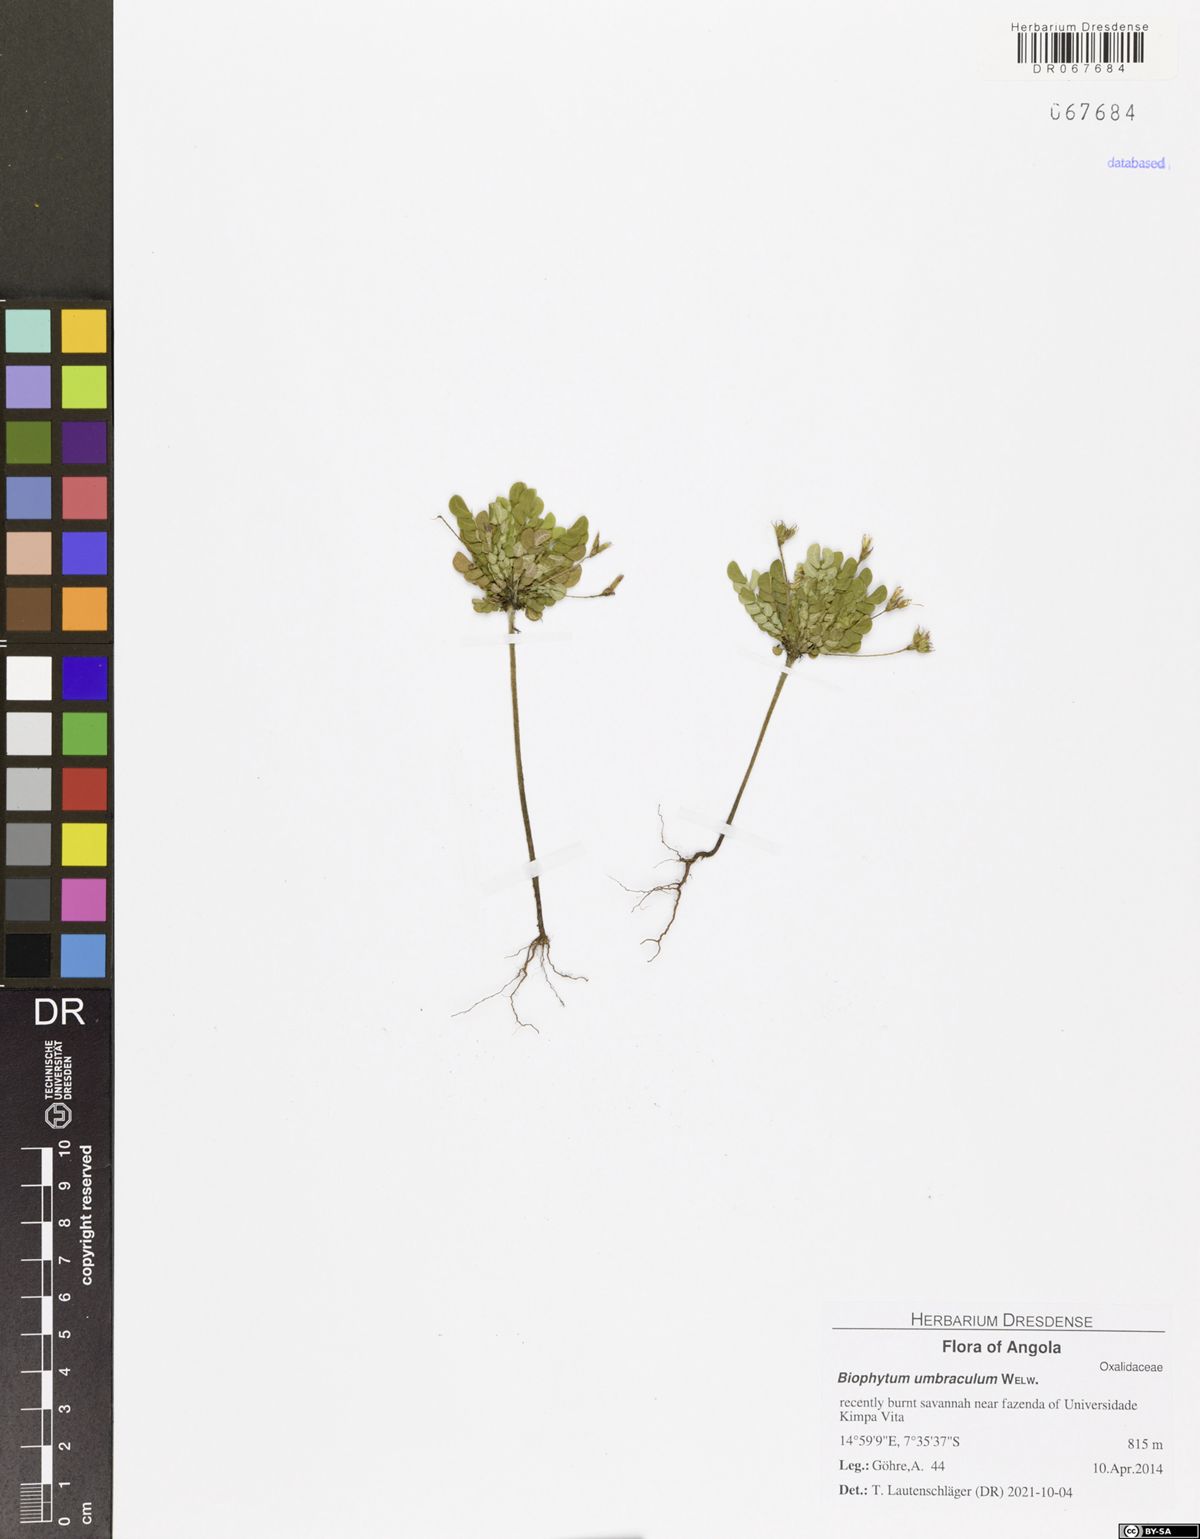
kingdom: Plantae
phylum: Tracheophyta
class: Magnoliopsida
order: Oxalidales
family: Oxalidaceae
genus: Biophytum
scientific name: Biophytum umbraculum
